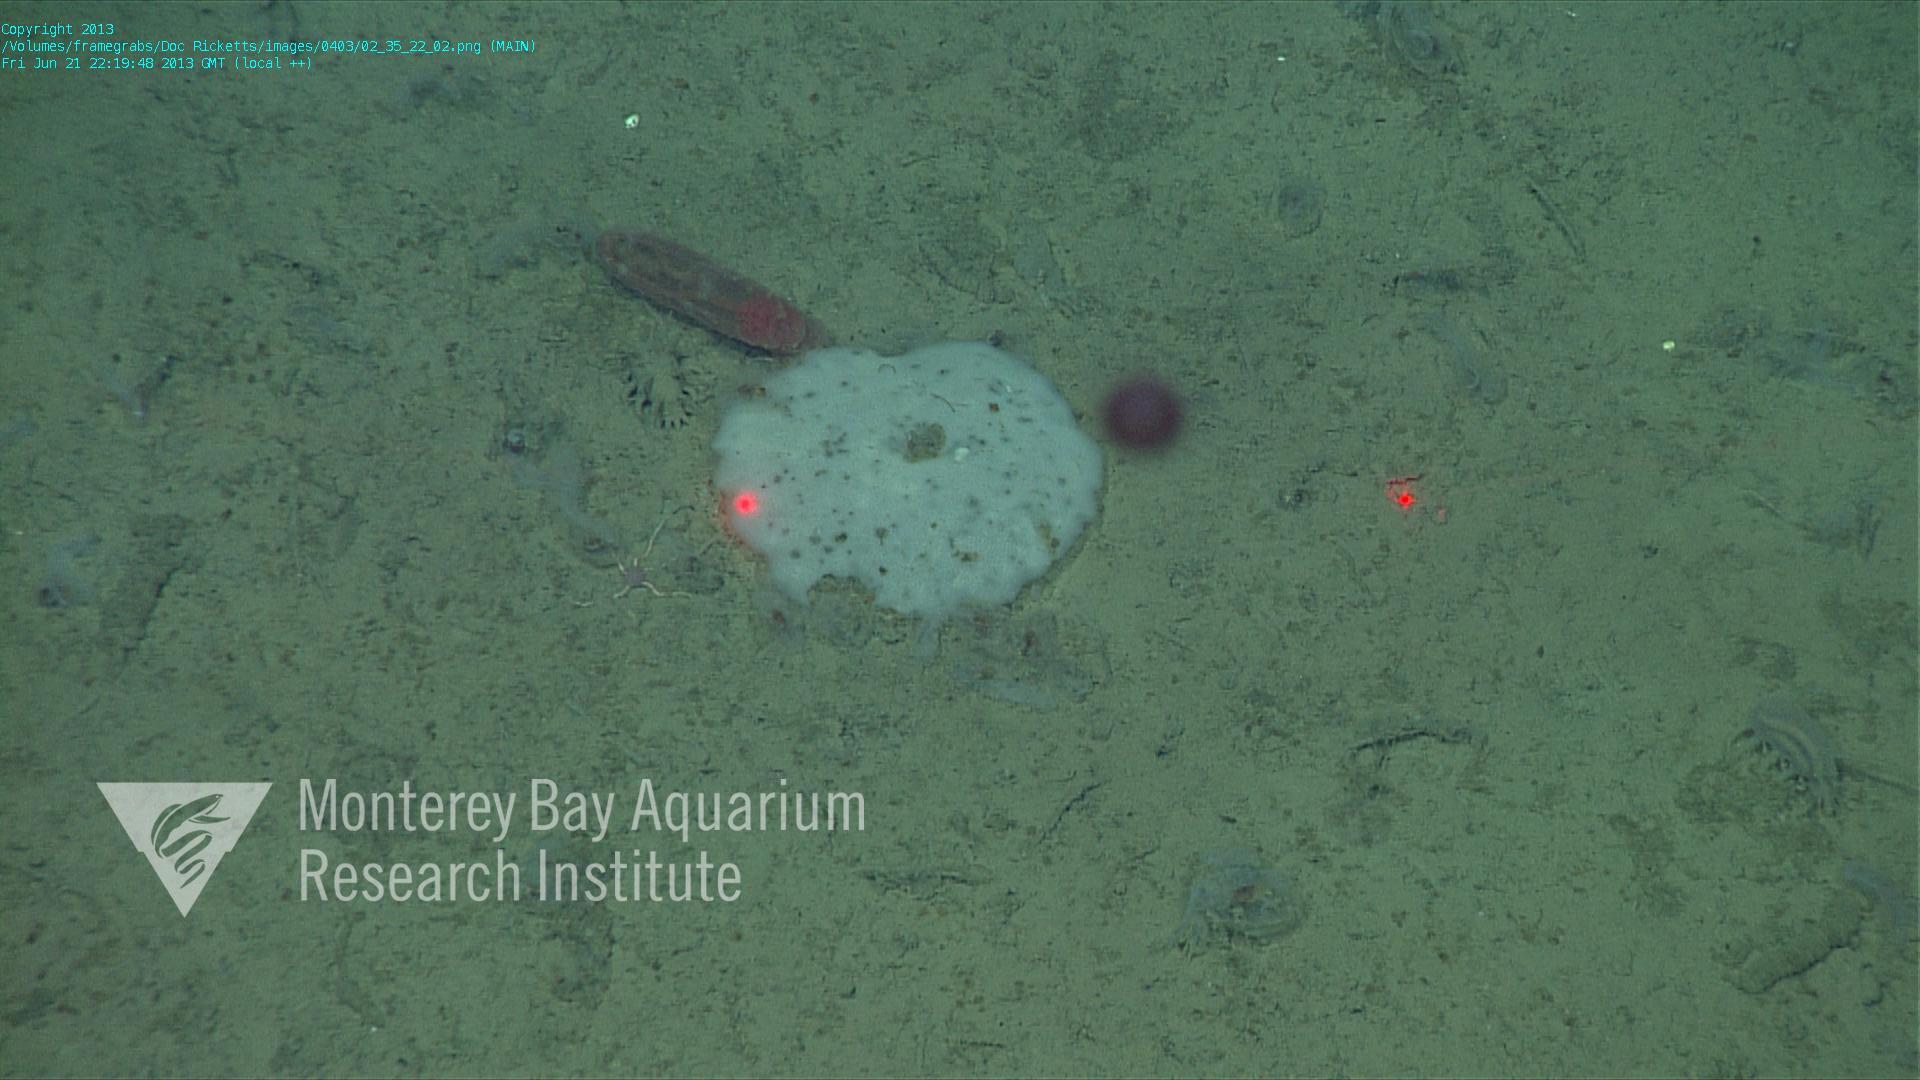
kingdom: Animalia
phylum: Porifera
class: Hexactinellida
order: Lyssacinosida
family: Euplectellidae
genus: Docosaccus
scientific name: Docosaccus maculatus
